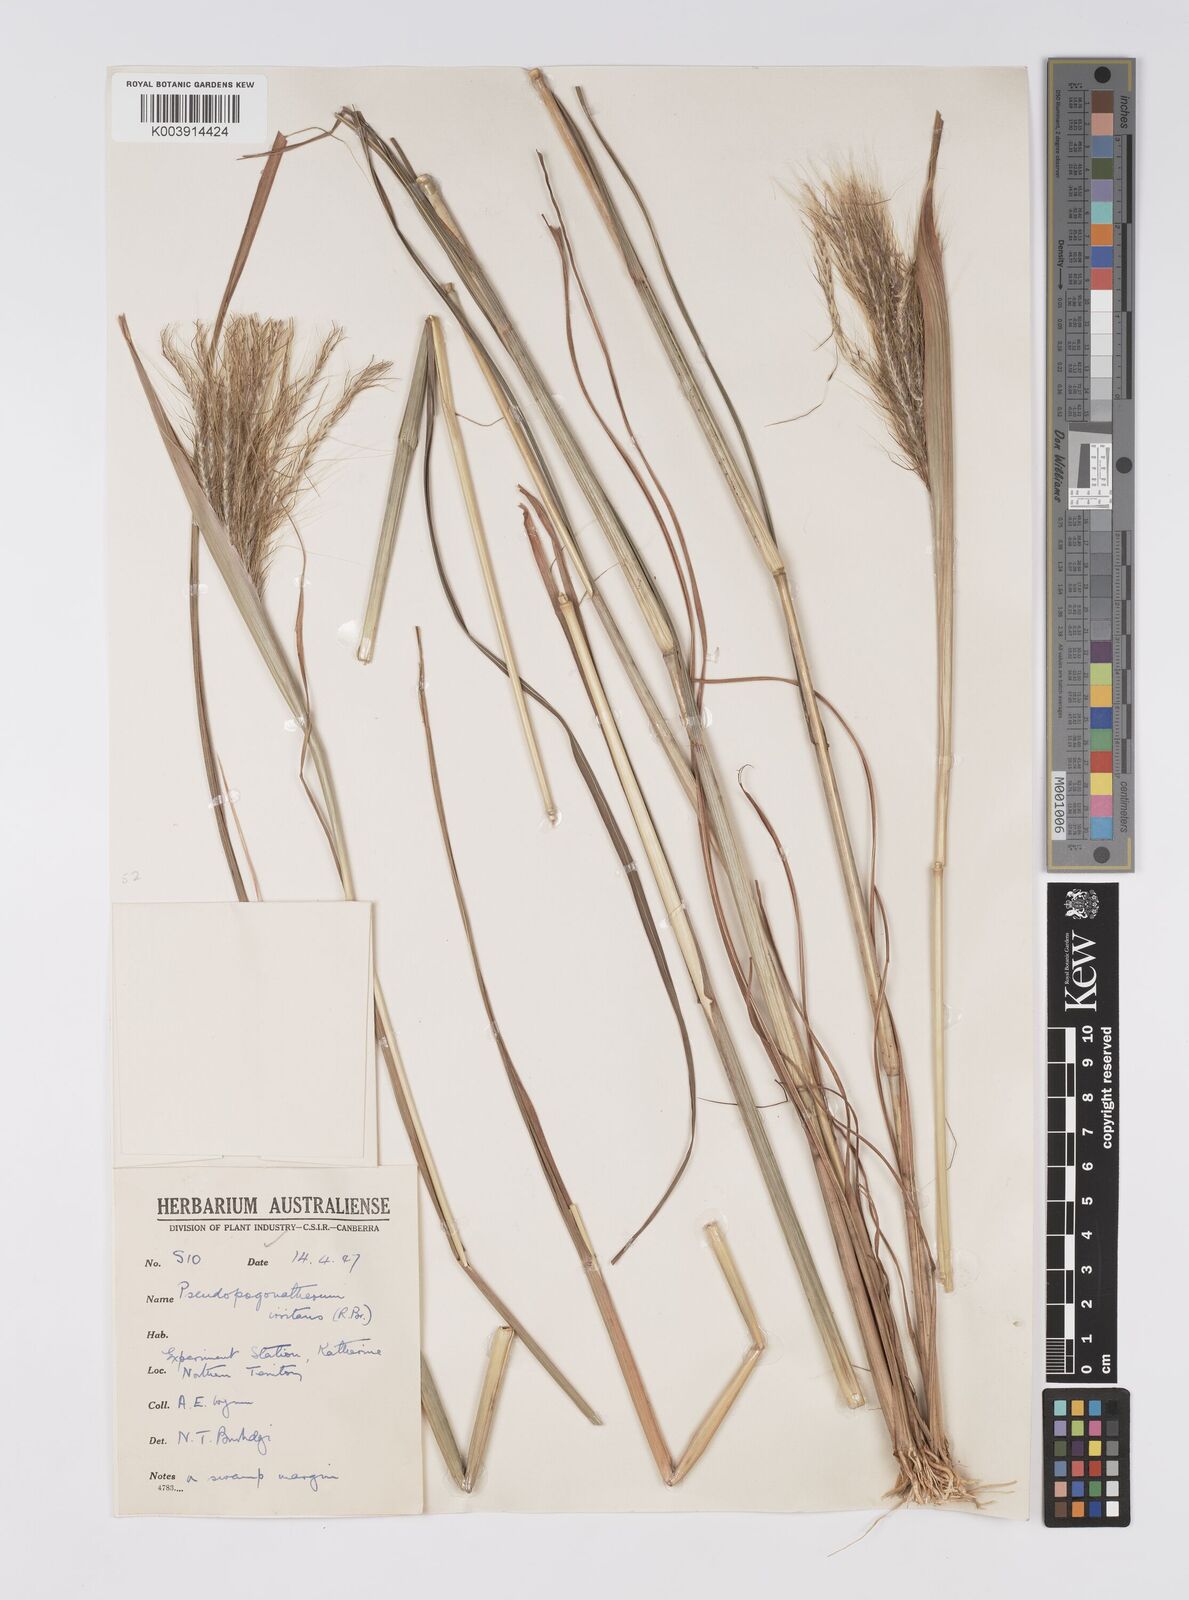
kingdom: Plantae
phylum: Tracheophyta
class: Liliopsida
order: Poales
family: Poaceae
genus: Pseudopogonatherum
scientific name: Pseudopogonatherum irritans
